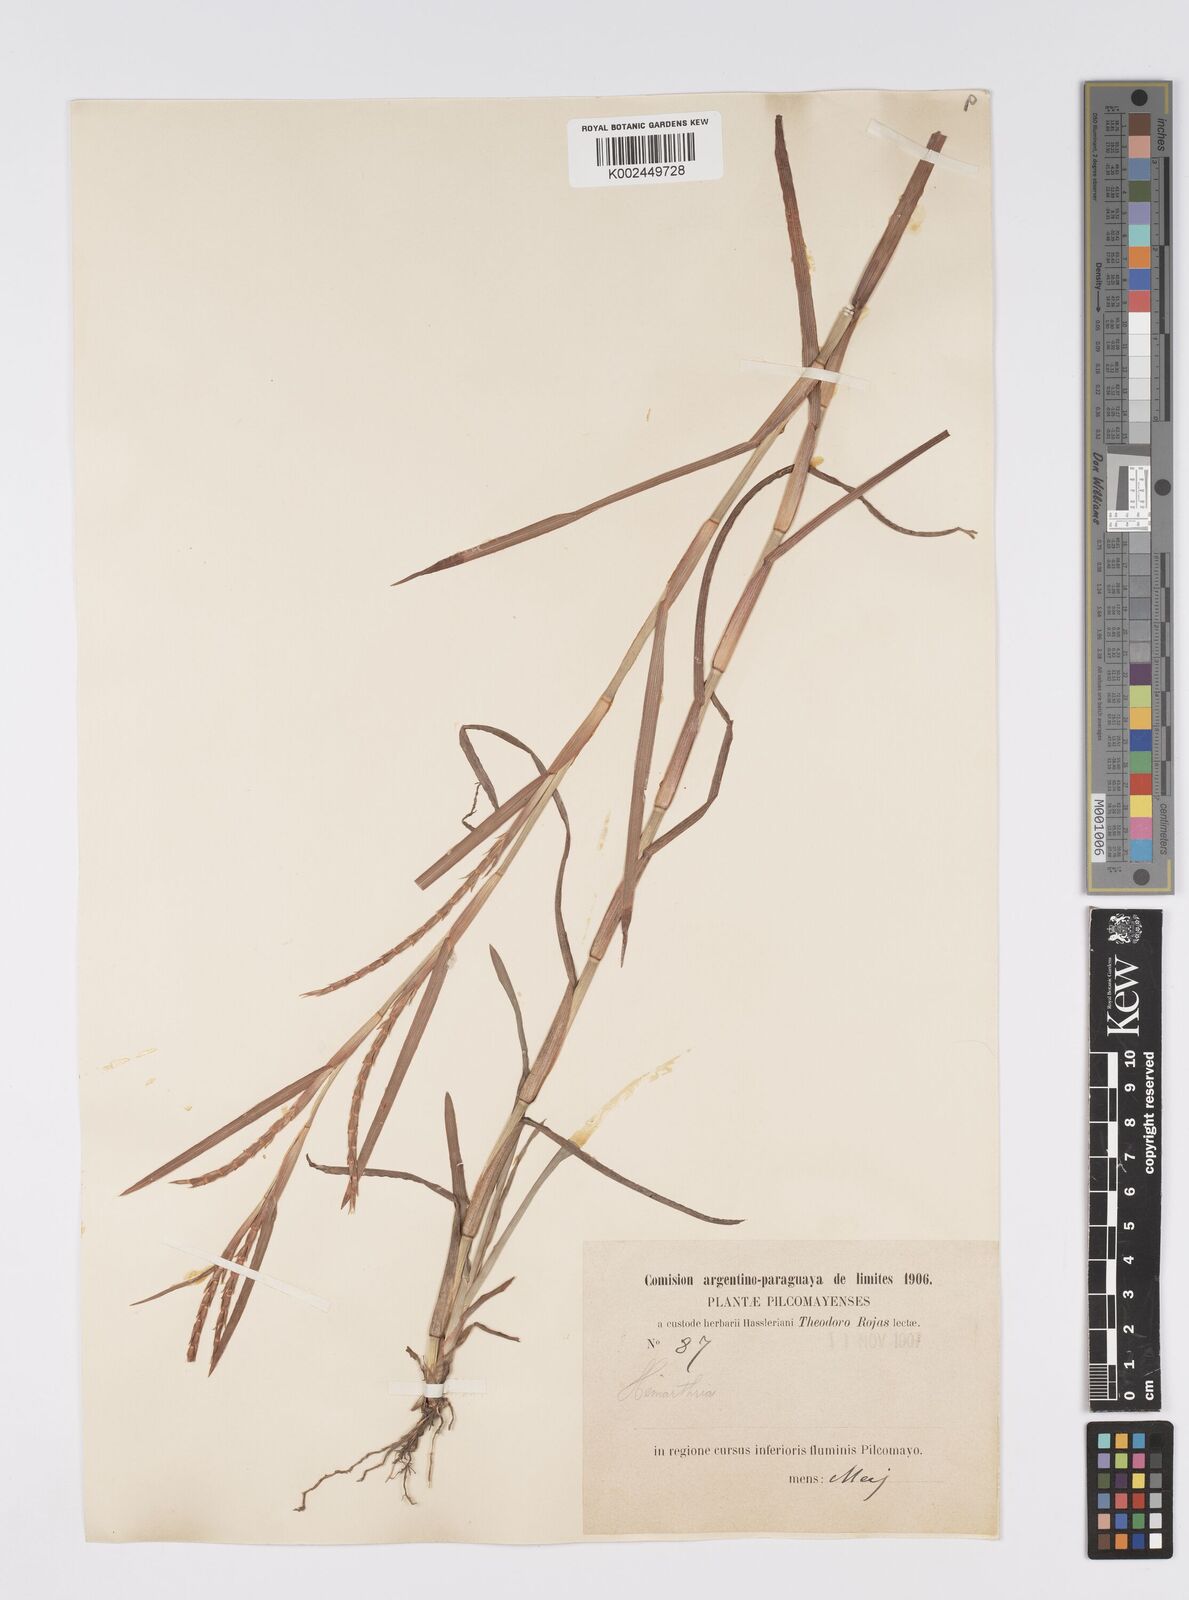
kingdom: Plantae
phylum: Tracheophyta
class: Liliopsida
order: Poales
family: Poaceae
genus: Hemarthria
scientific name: Hemarthria altissima
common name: African jointgrass
